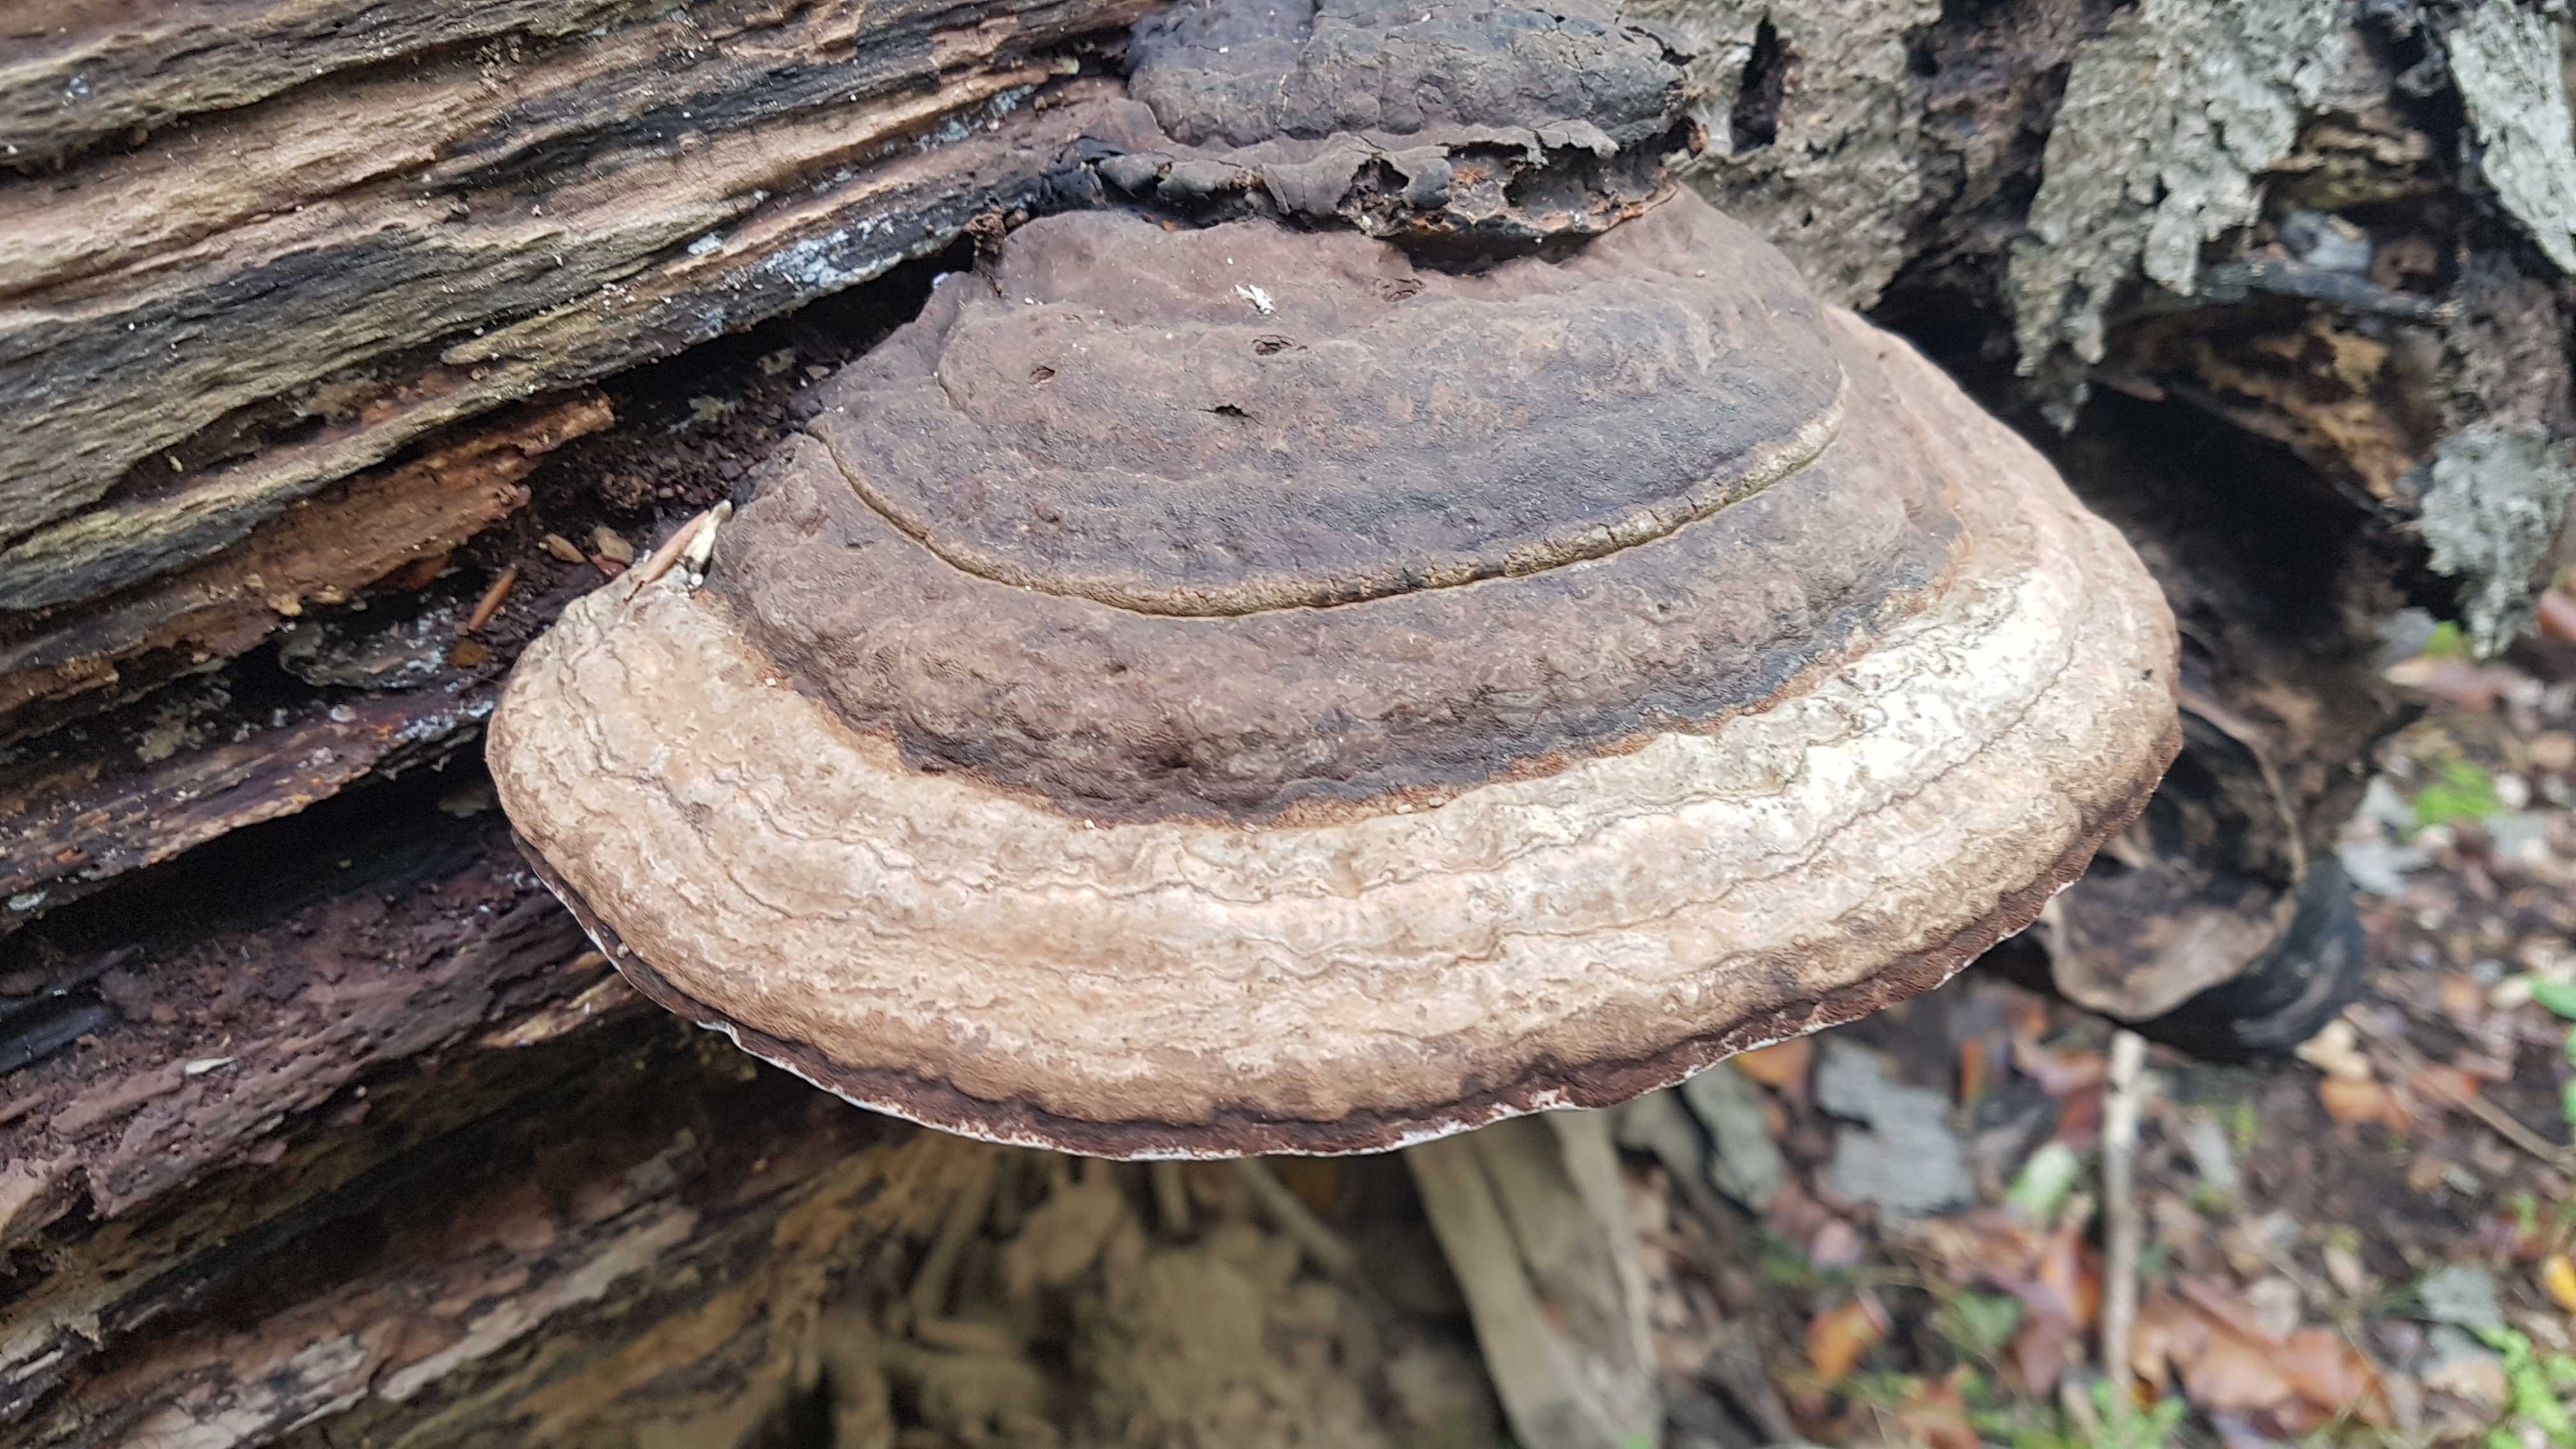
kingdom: Fungi
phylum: Basidiomycota
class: Agaricomycetes
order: Polyporales
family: Polyporaceae
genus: Fomes
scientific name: Fomes fomentarius
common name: tøndersvamp
